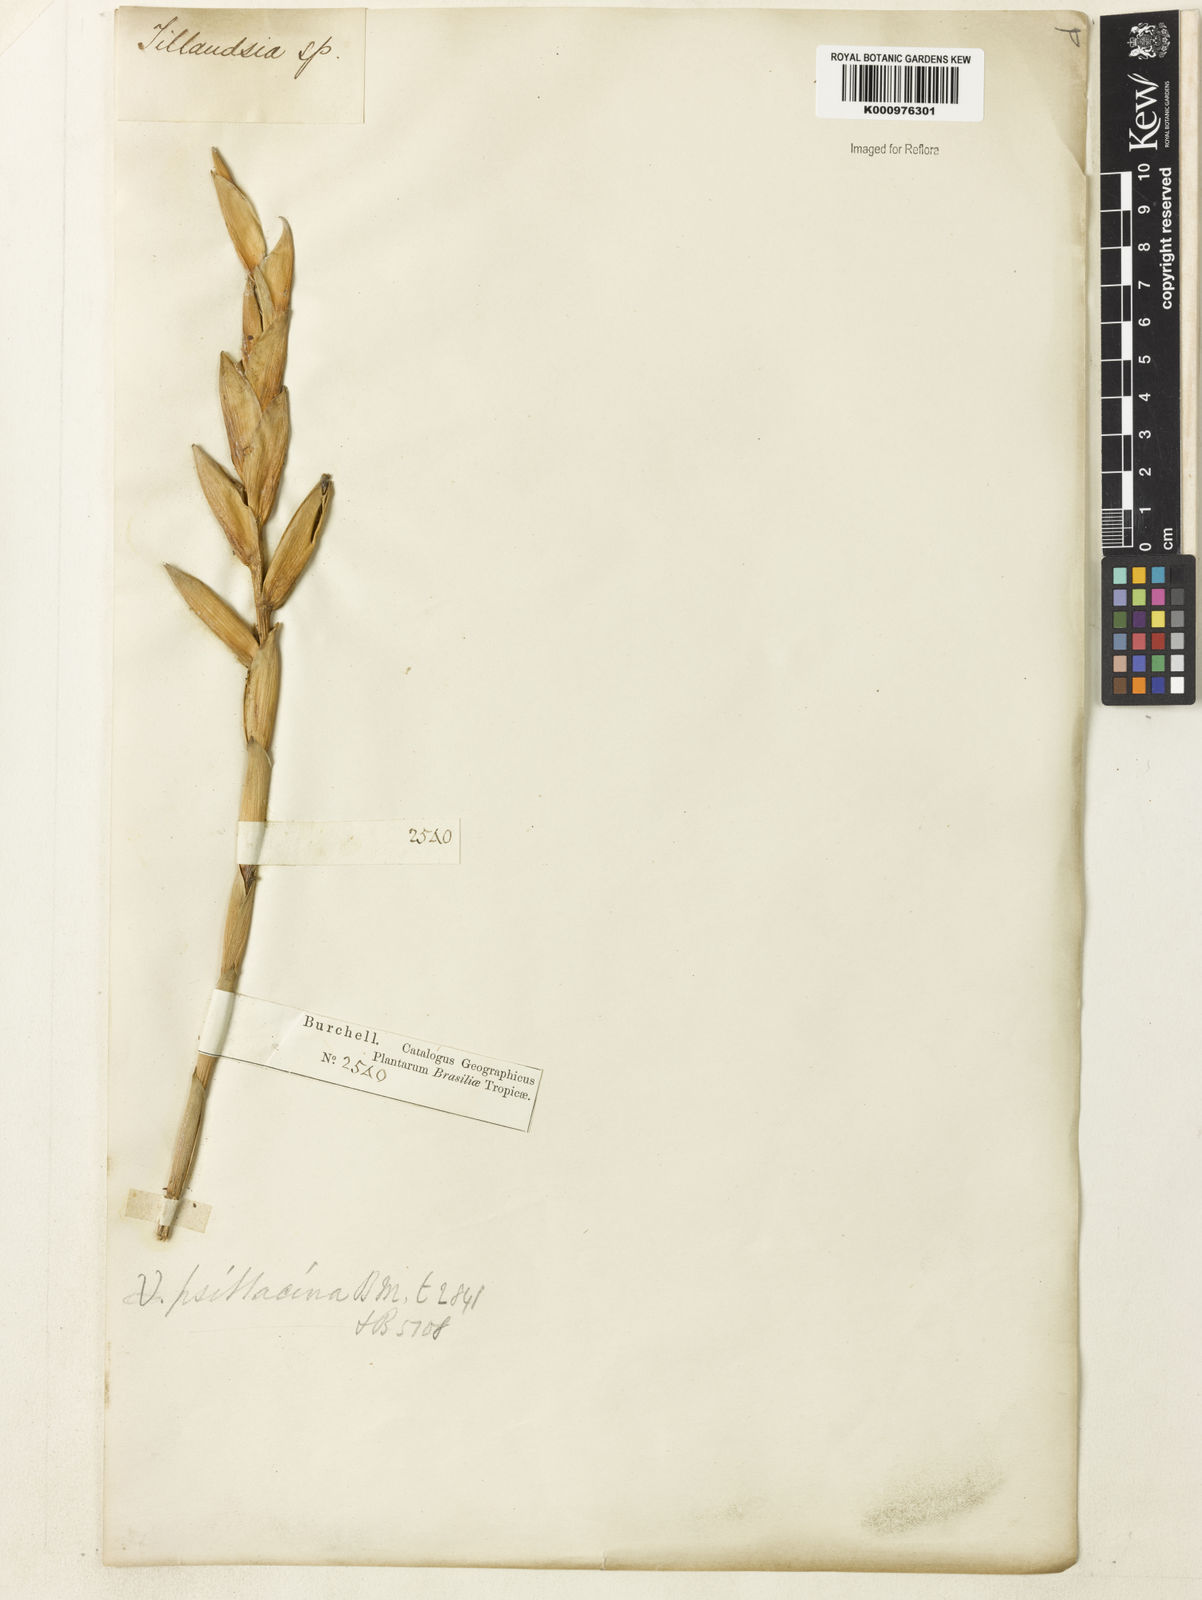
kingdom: Plantae
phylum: Tracheophyta
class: Liliopsida
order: Poales
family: Bromeliaceae
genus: Vriesea
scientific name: Vriesea psittacina
